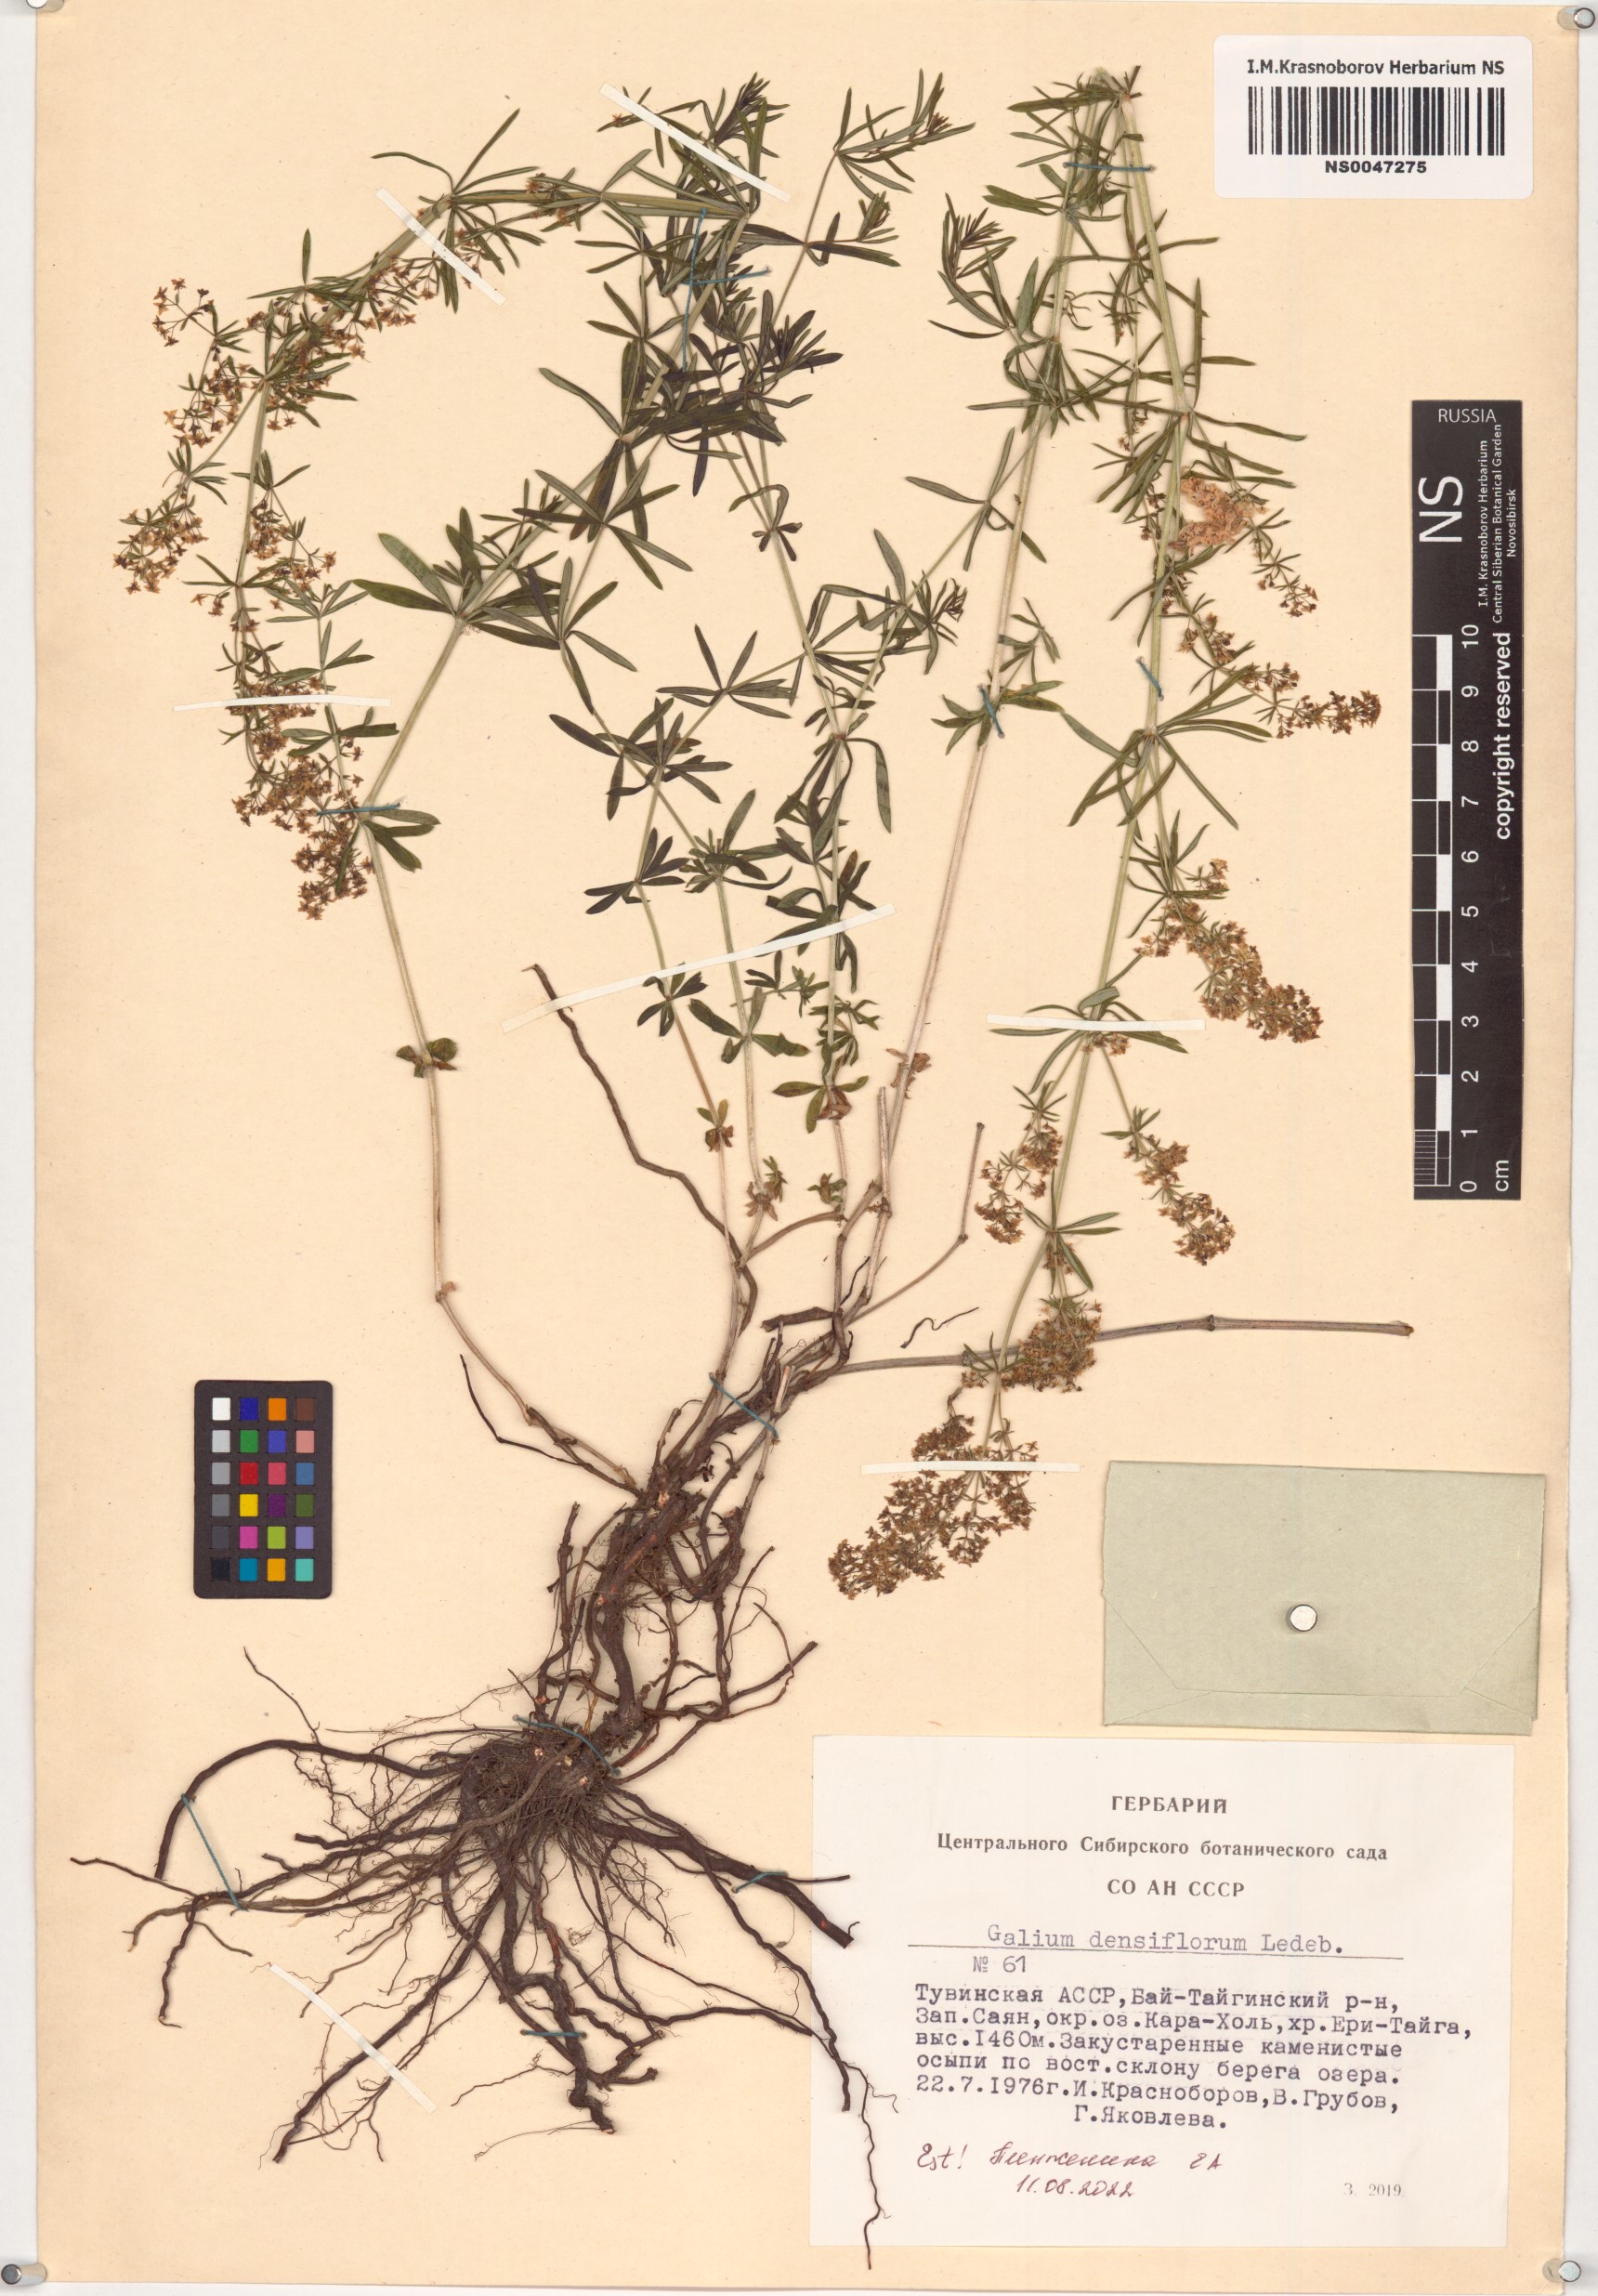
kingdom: Plantae
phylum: Tracheophyta
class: Magnoliopsida
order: Gentianales
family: Rubiaceae
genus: Galium
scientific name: Galium densiflorum
